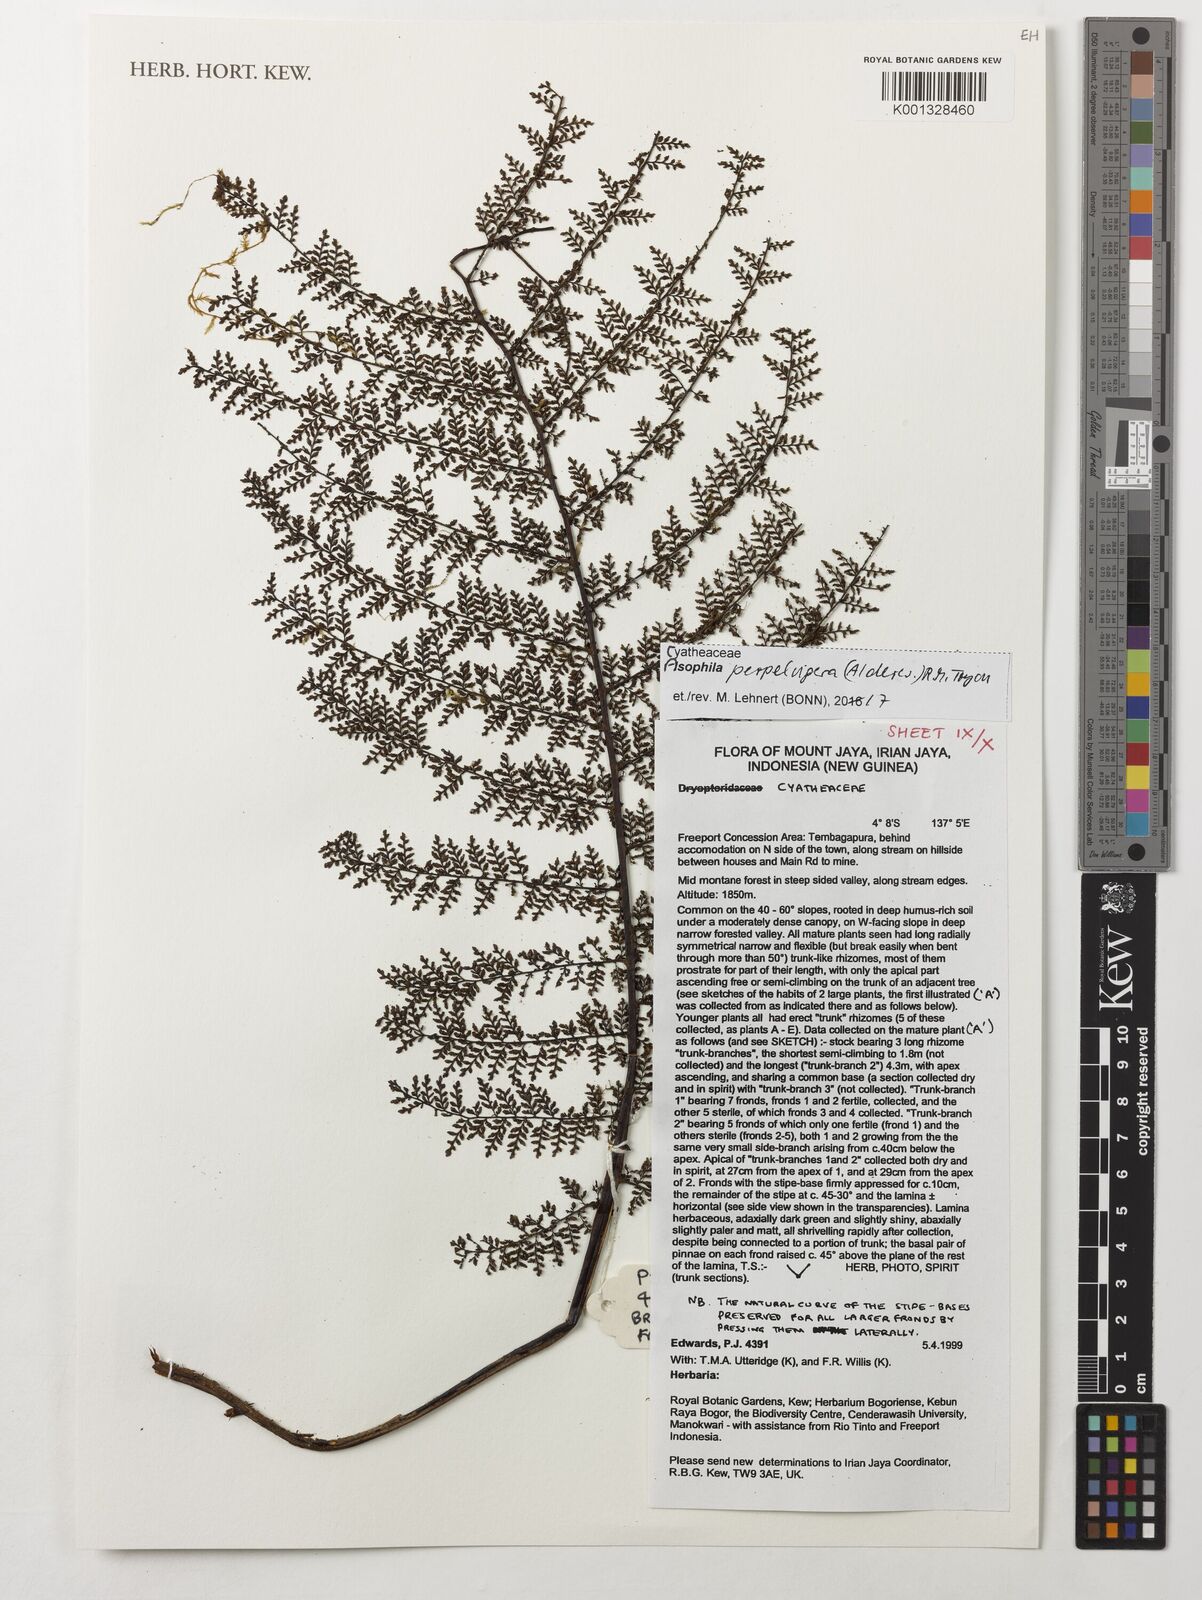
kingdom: Plantae
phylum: Tracheophyta
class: Polypodiopsida
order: Cyatheales
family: Cyatheaceae
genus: Alsophila
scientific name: Alsophila perpelvigera
